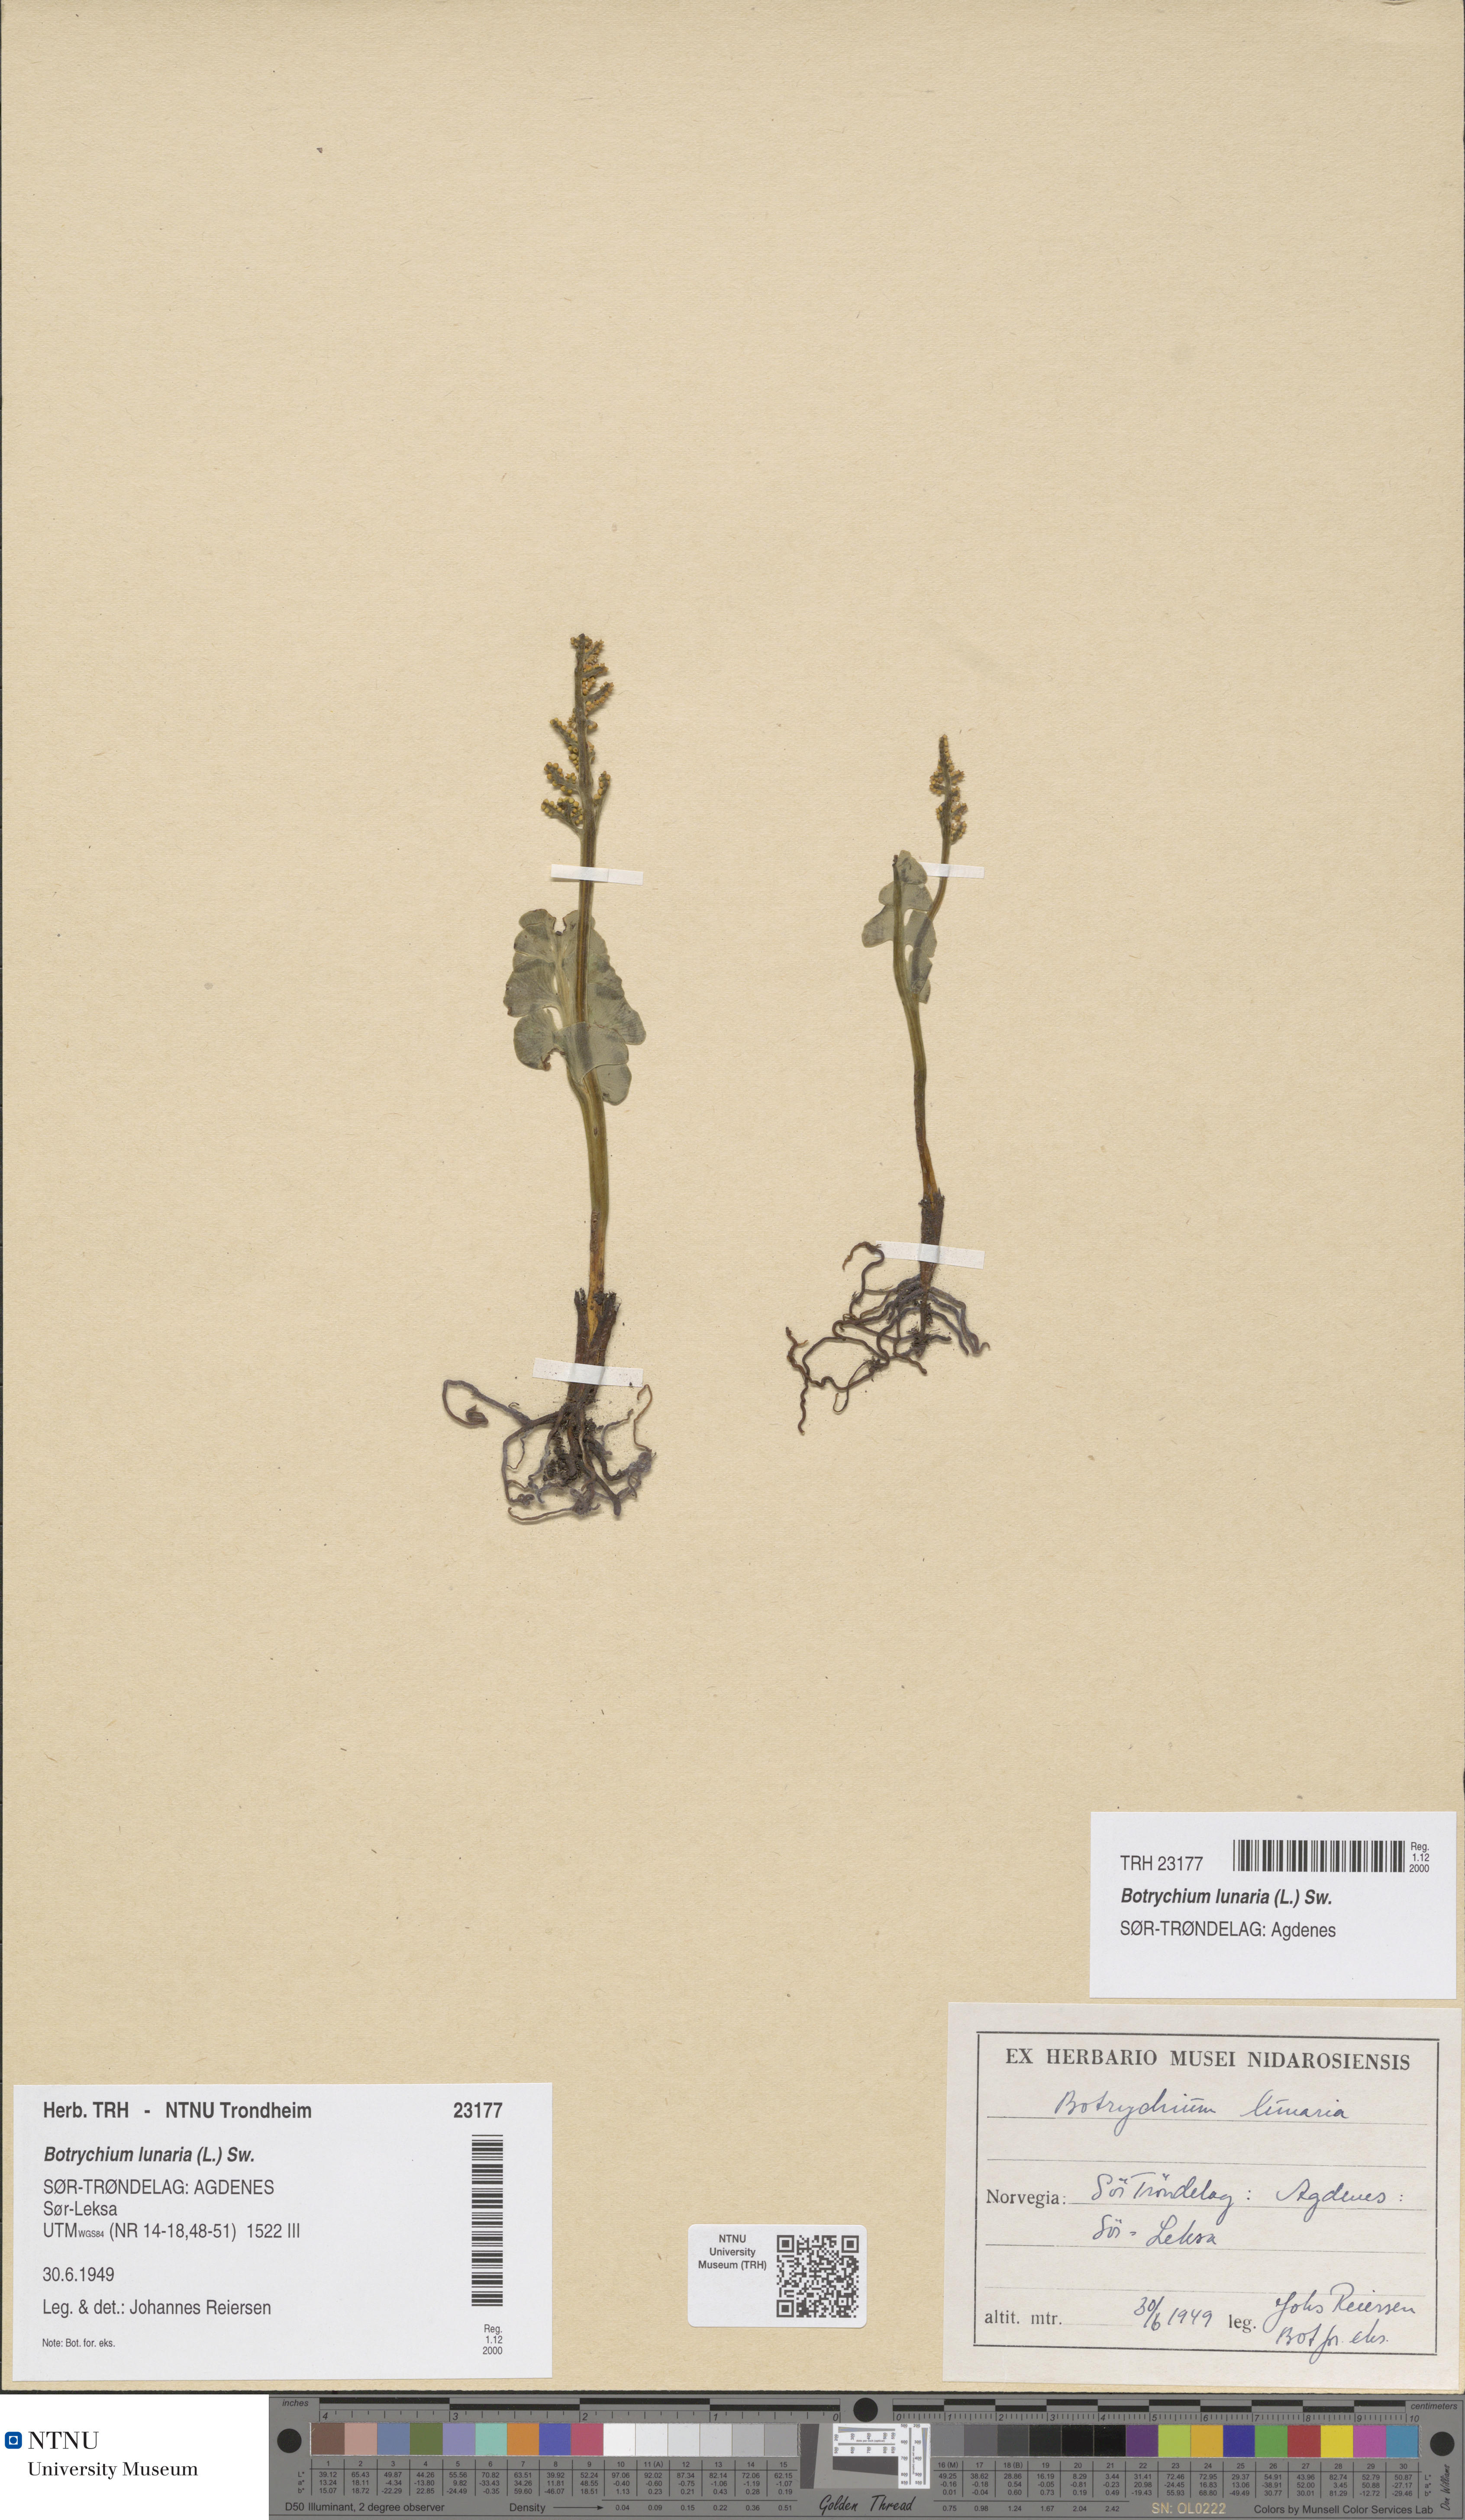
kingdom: Plantae
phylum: Tracheophyta
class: Polypodiopsida
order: Ophioglossales
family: Ophioglossaceae
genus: Botrychium
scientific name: Botrychium lunaria
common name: Moonwort
